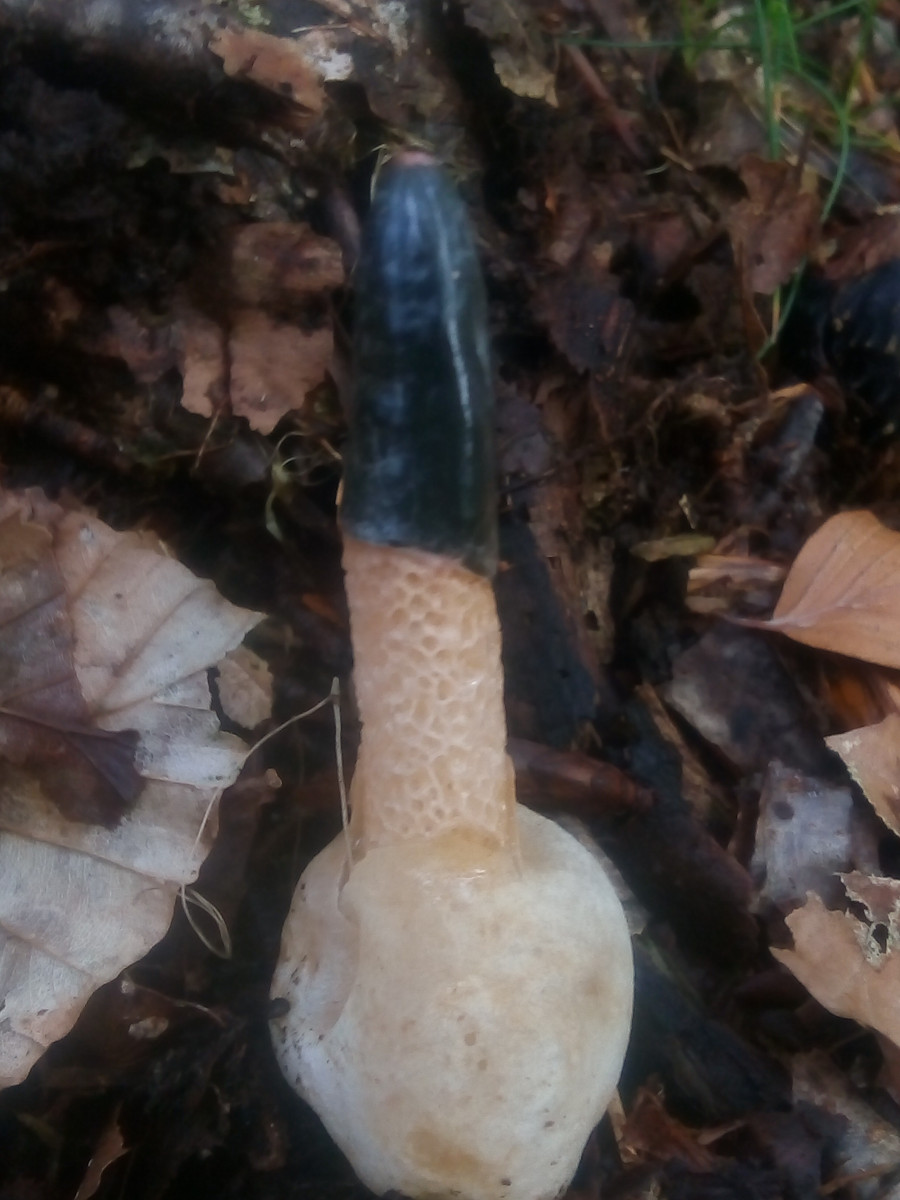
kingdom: Fungi
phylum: Basidiomycota
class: Agaricomycetes
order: Phallales
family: Phallaceae
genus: Mutinus
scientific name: Mutinus caninus
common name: hunde-stinksvamp
